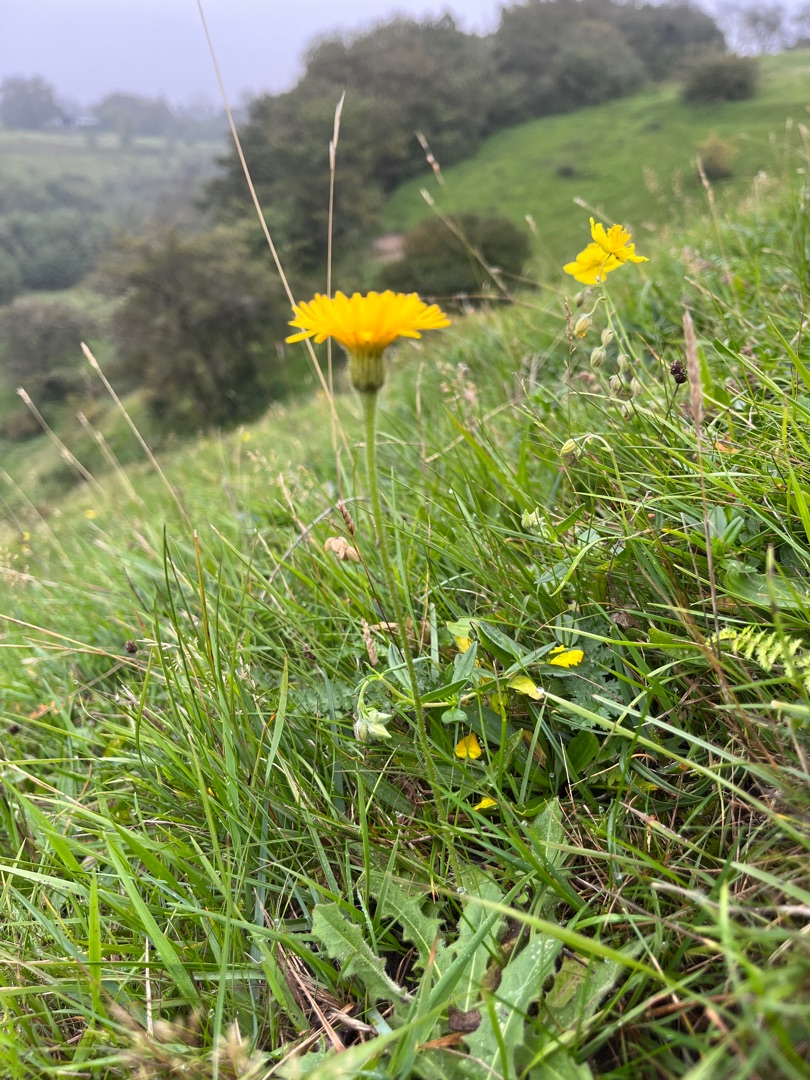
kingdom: Plantae
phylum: Tracheophyta
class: Magnoliopsida
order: Asterales
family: Asteraceae
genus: Leontodon
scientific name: Leontodon hispidus
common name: Stivhåret borst
